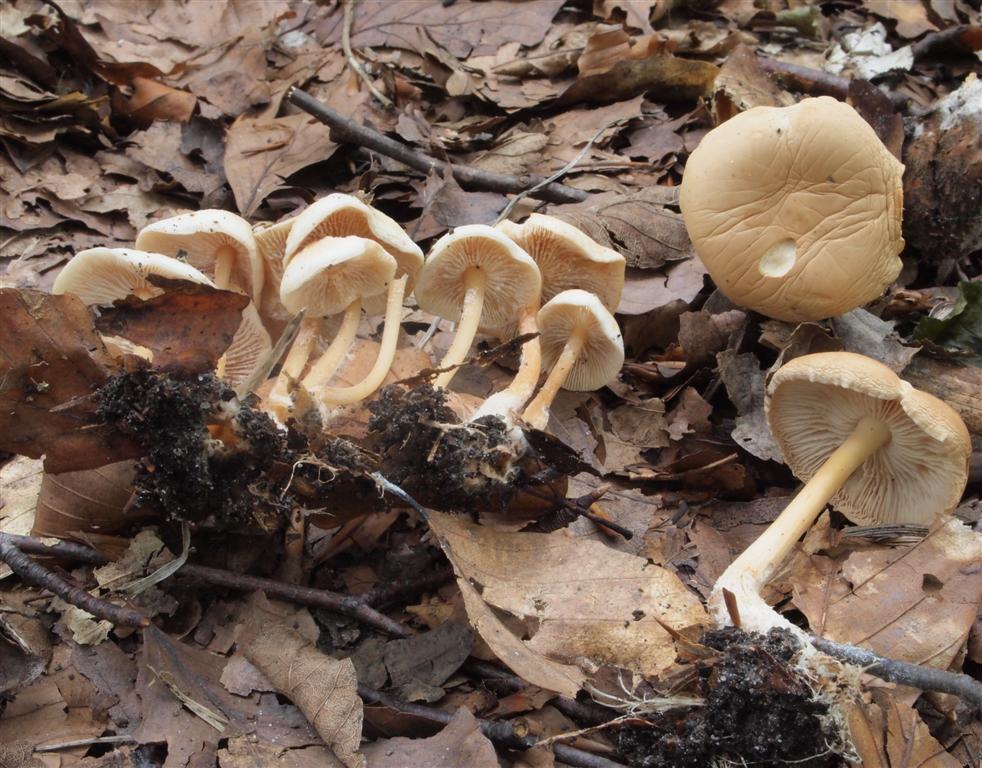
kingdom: Fungi
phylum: Basidiomycota
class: Agaricomycetes
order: Agaricales
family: Omphalotaceae
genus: Gymnopus
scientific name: Gymnopus dryophilus
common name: løv-fladhat
